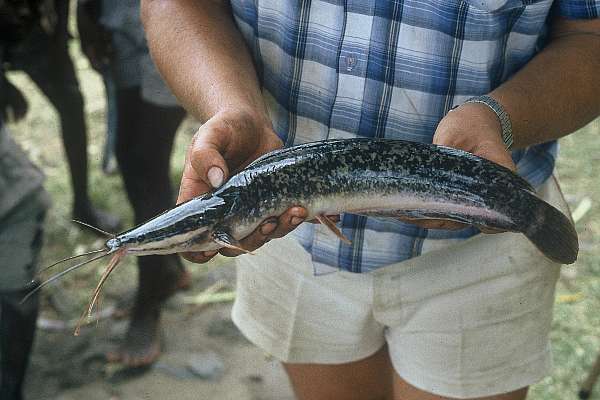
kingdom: Animalia
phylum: Chordata
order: Siluriformes
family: Clariidae
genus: Clarias
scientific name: Clarias gariepinus
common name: African catfish
